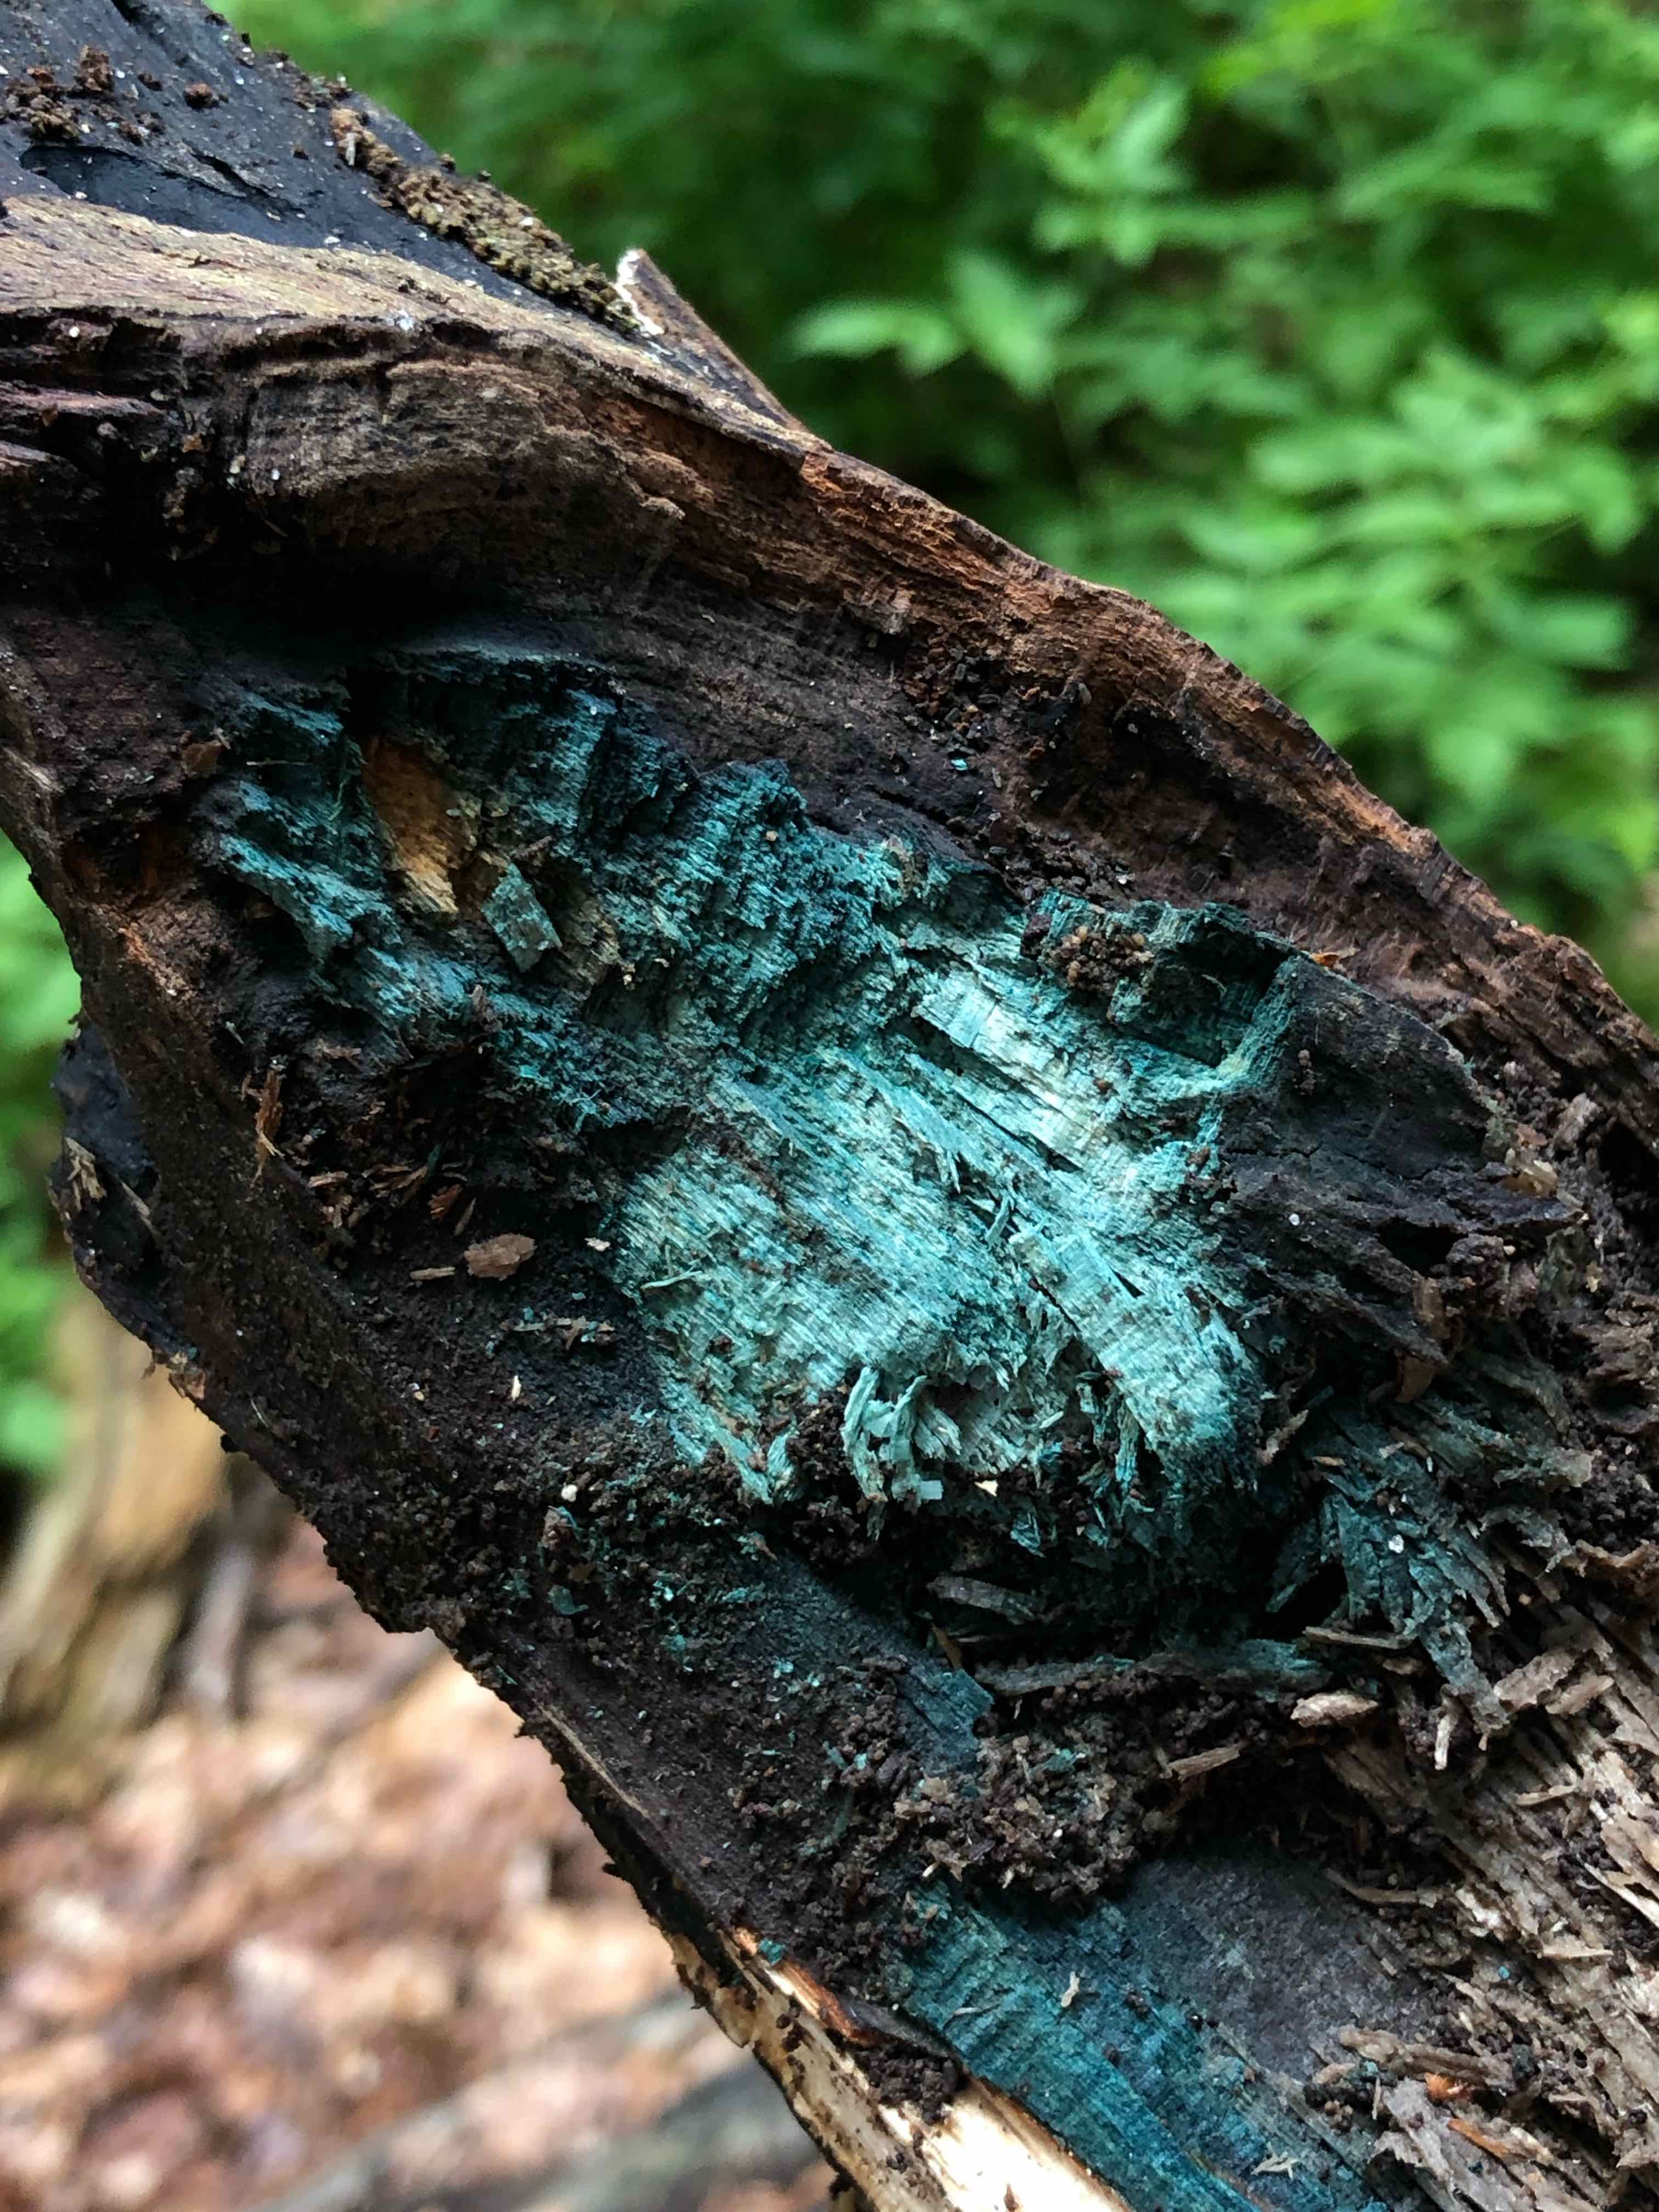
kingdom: Fungi
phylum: Ascomycota
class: Leotiomycetes
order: Helotiales
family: Chlorociboriaceae
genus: Chlorociboria
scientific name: Chlorociboria
